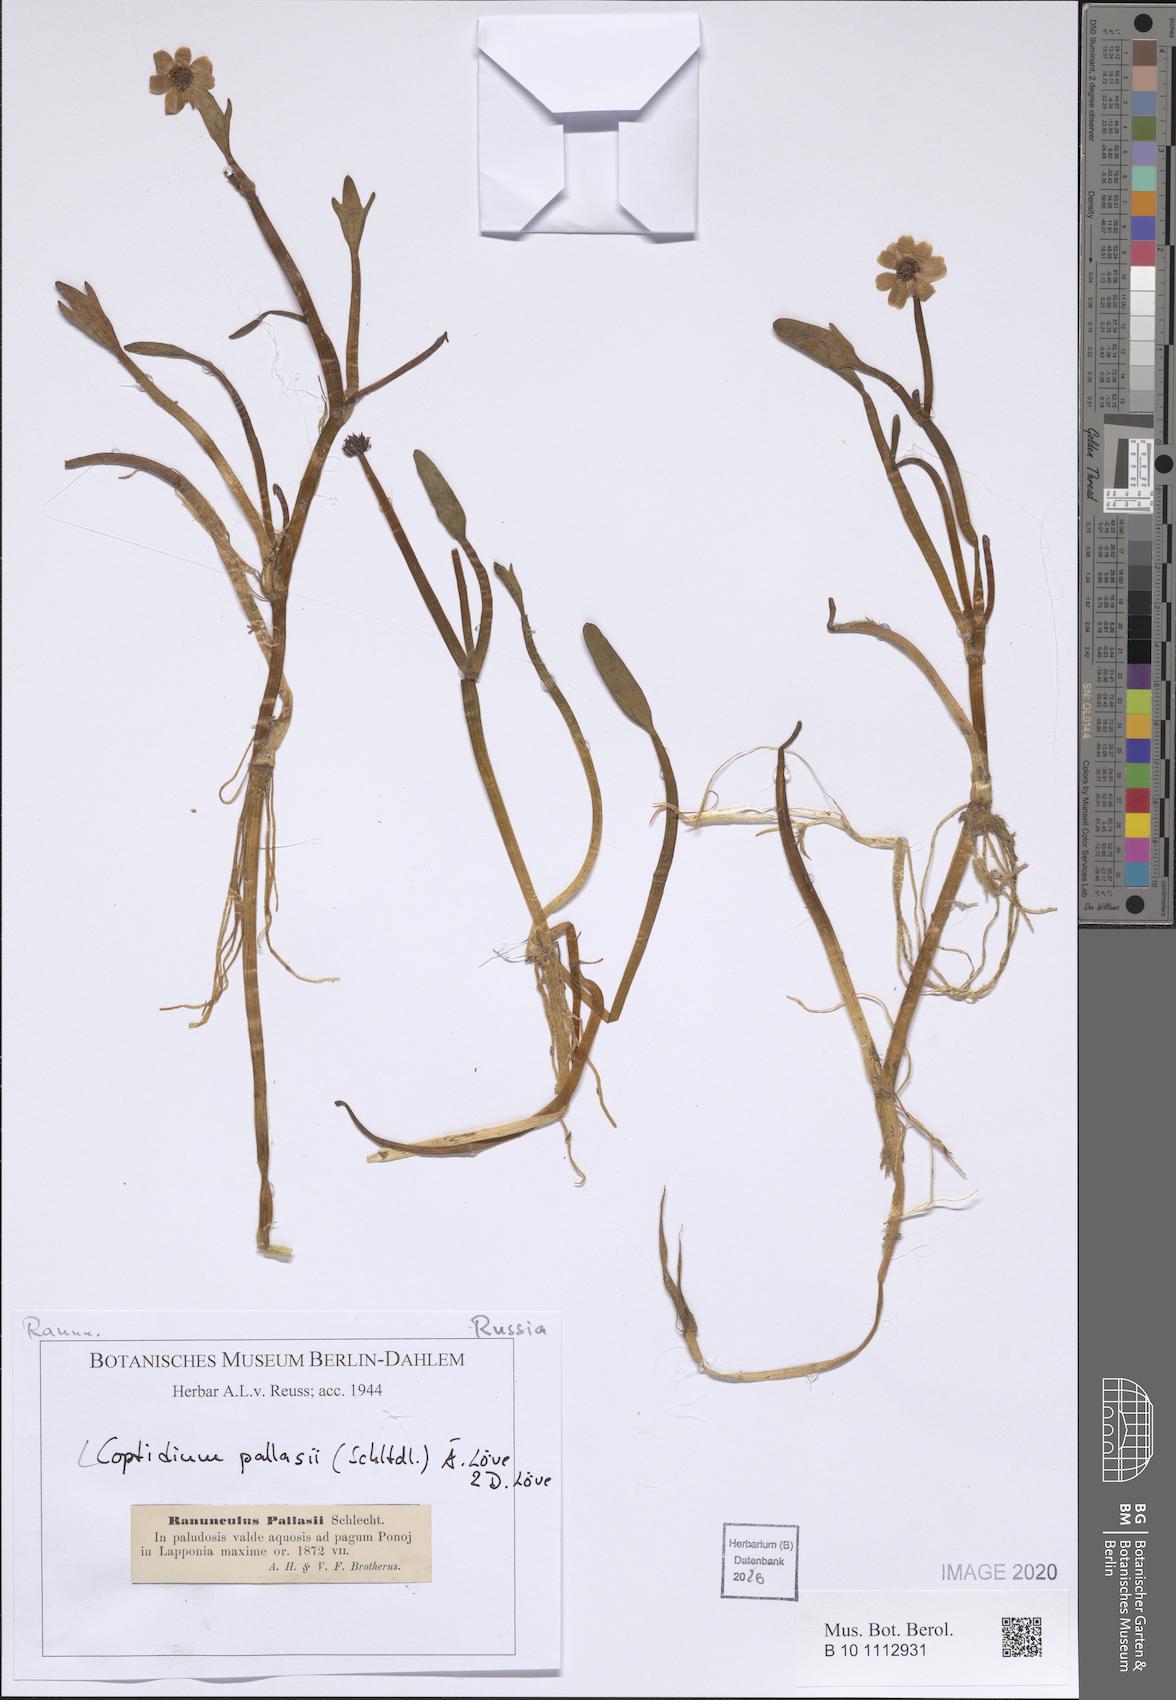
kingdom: Plantae
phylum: Tracheophyta
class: Magnoliopsida
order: Ranunculales
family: Ranunculaceae
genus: Coptidium
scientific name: Coptidium pallasii
